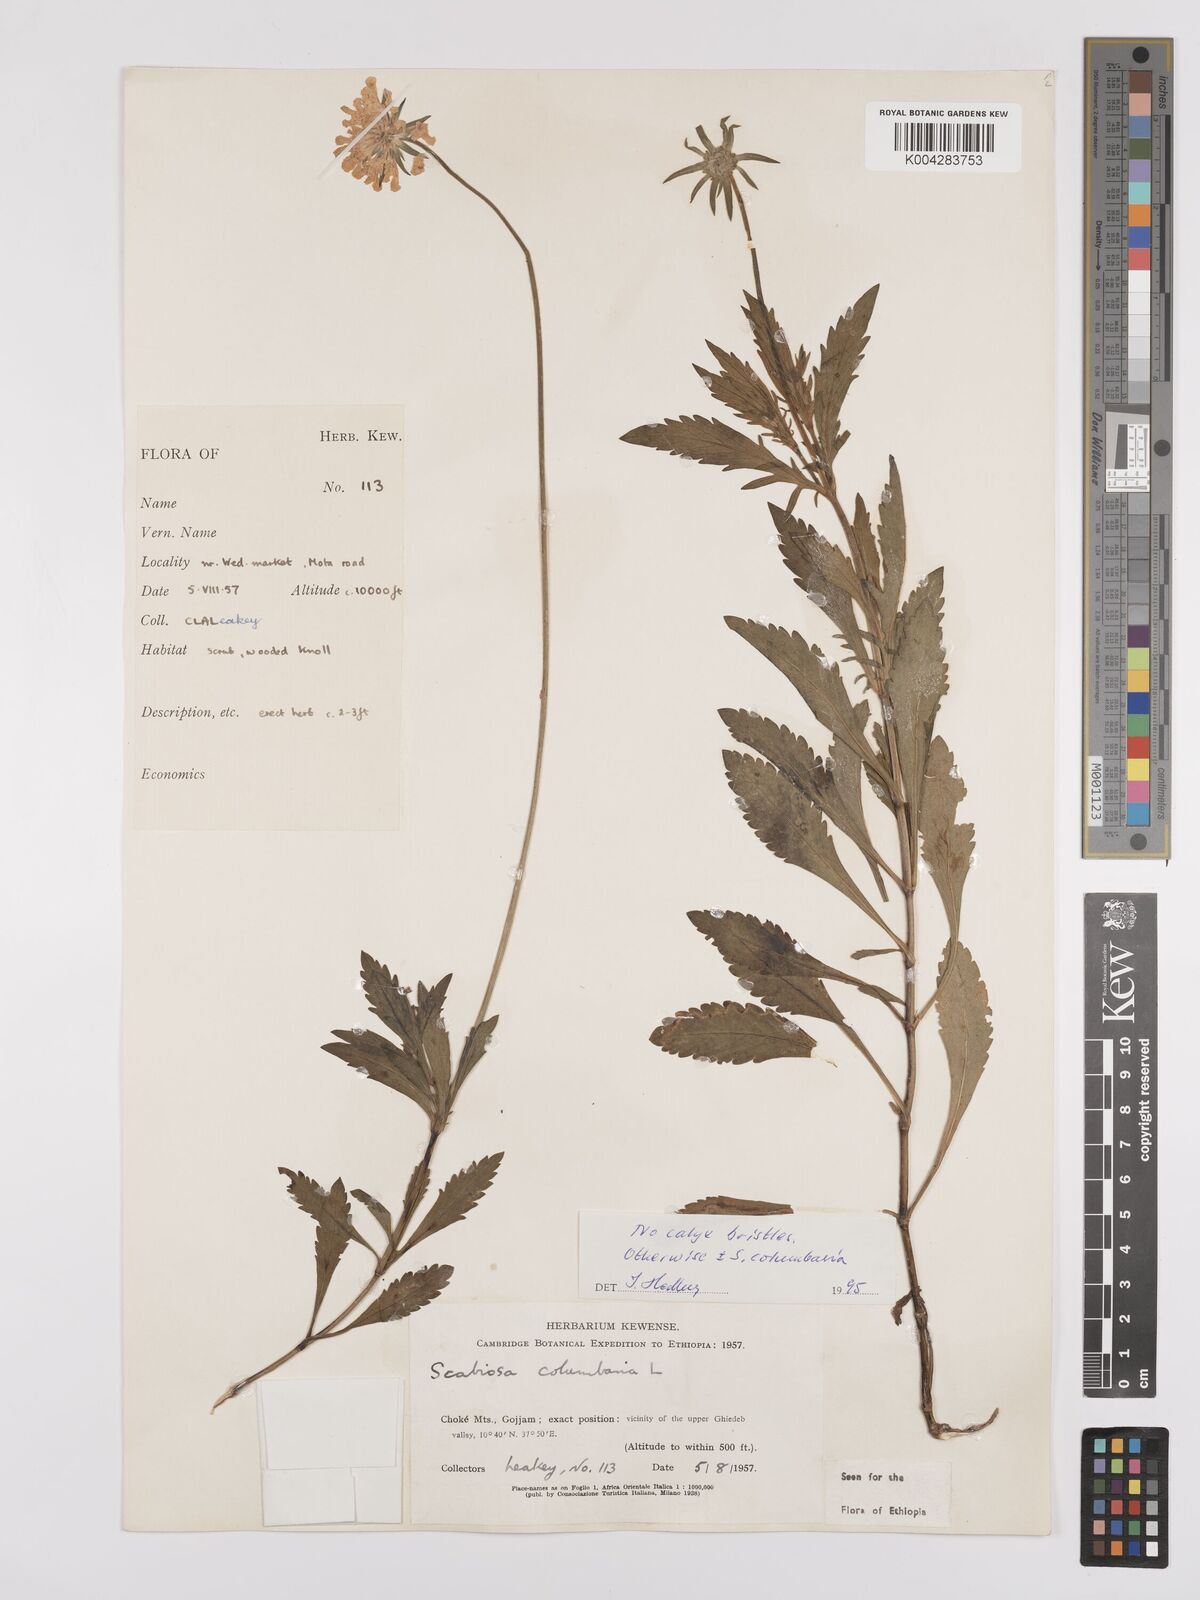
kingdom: Plantae
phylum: Tracheophyta
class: Magnoliopsida
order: Dipsacales
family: Caprifoliaceae
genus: Scabiosa
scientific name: Scabiosa columbaria
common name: Small scabious
